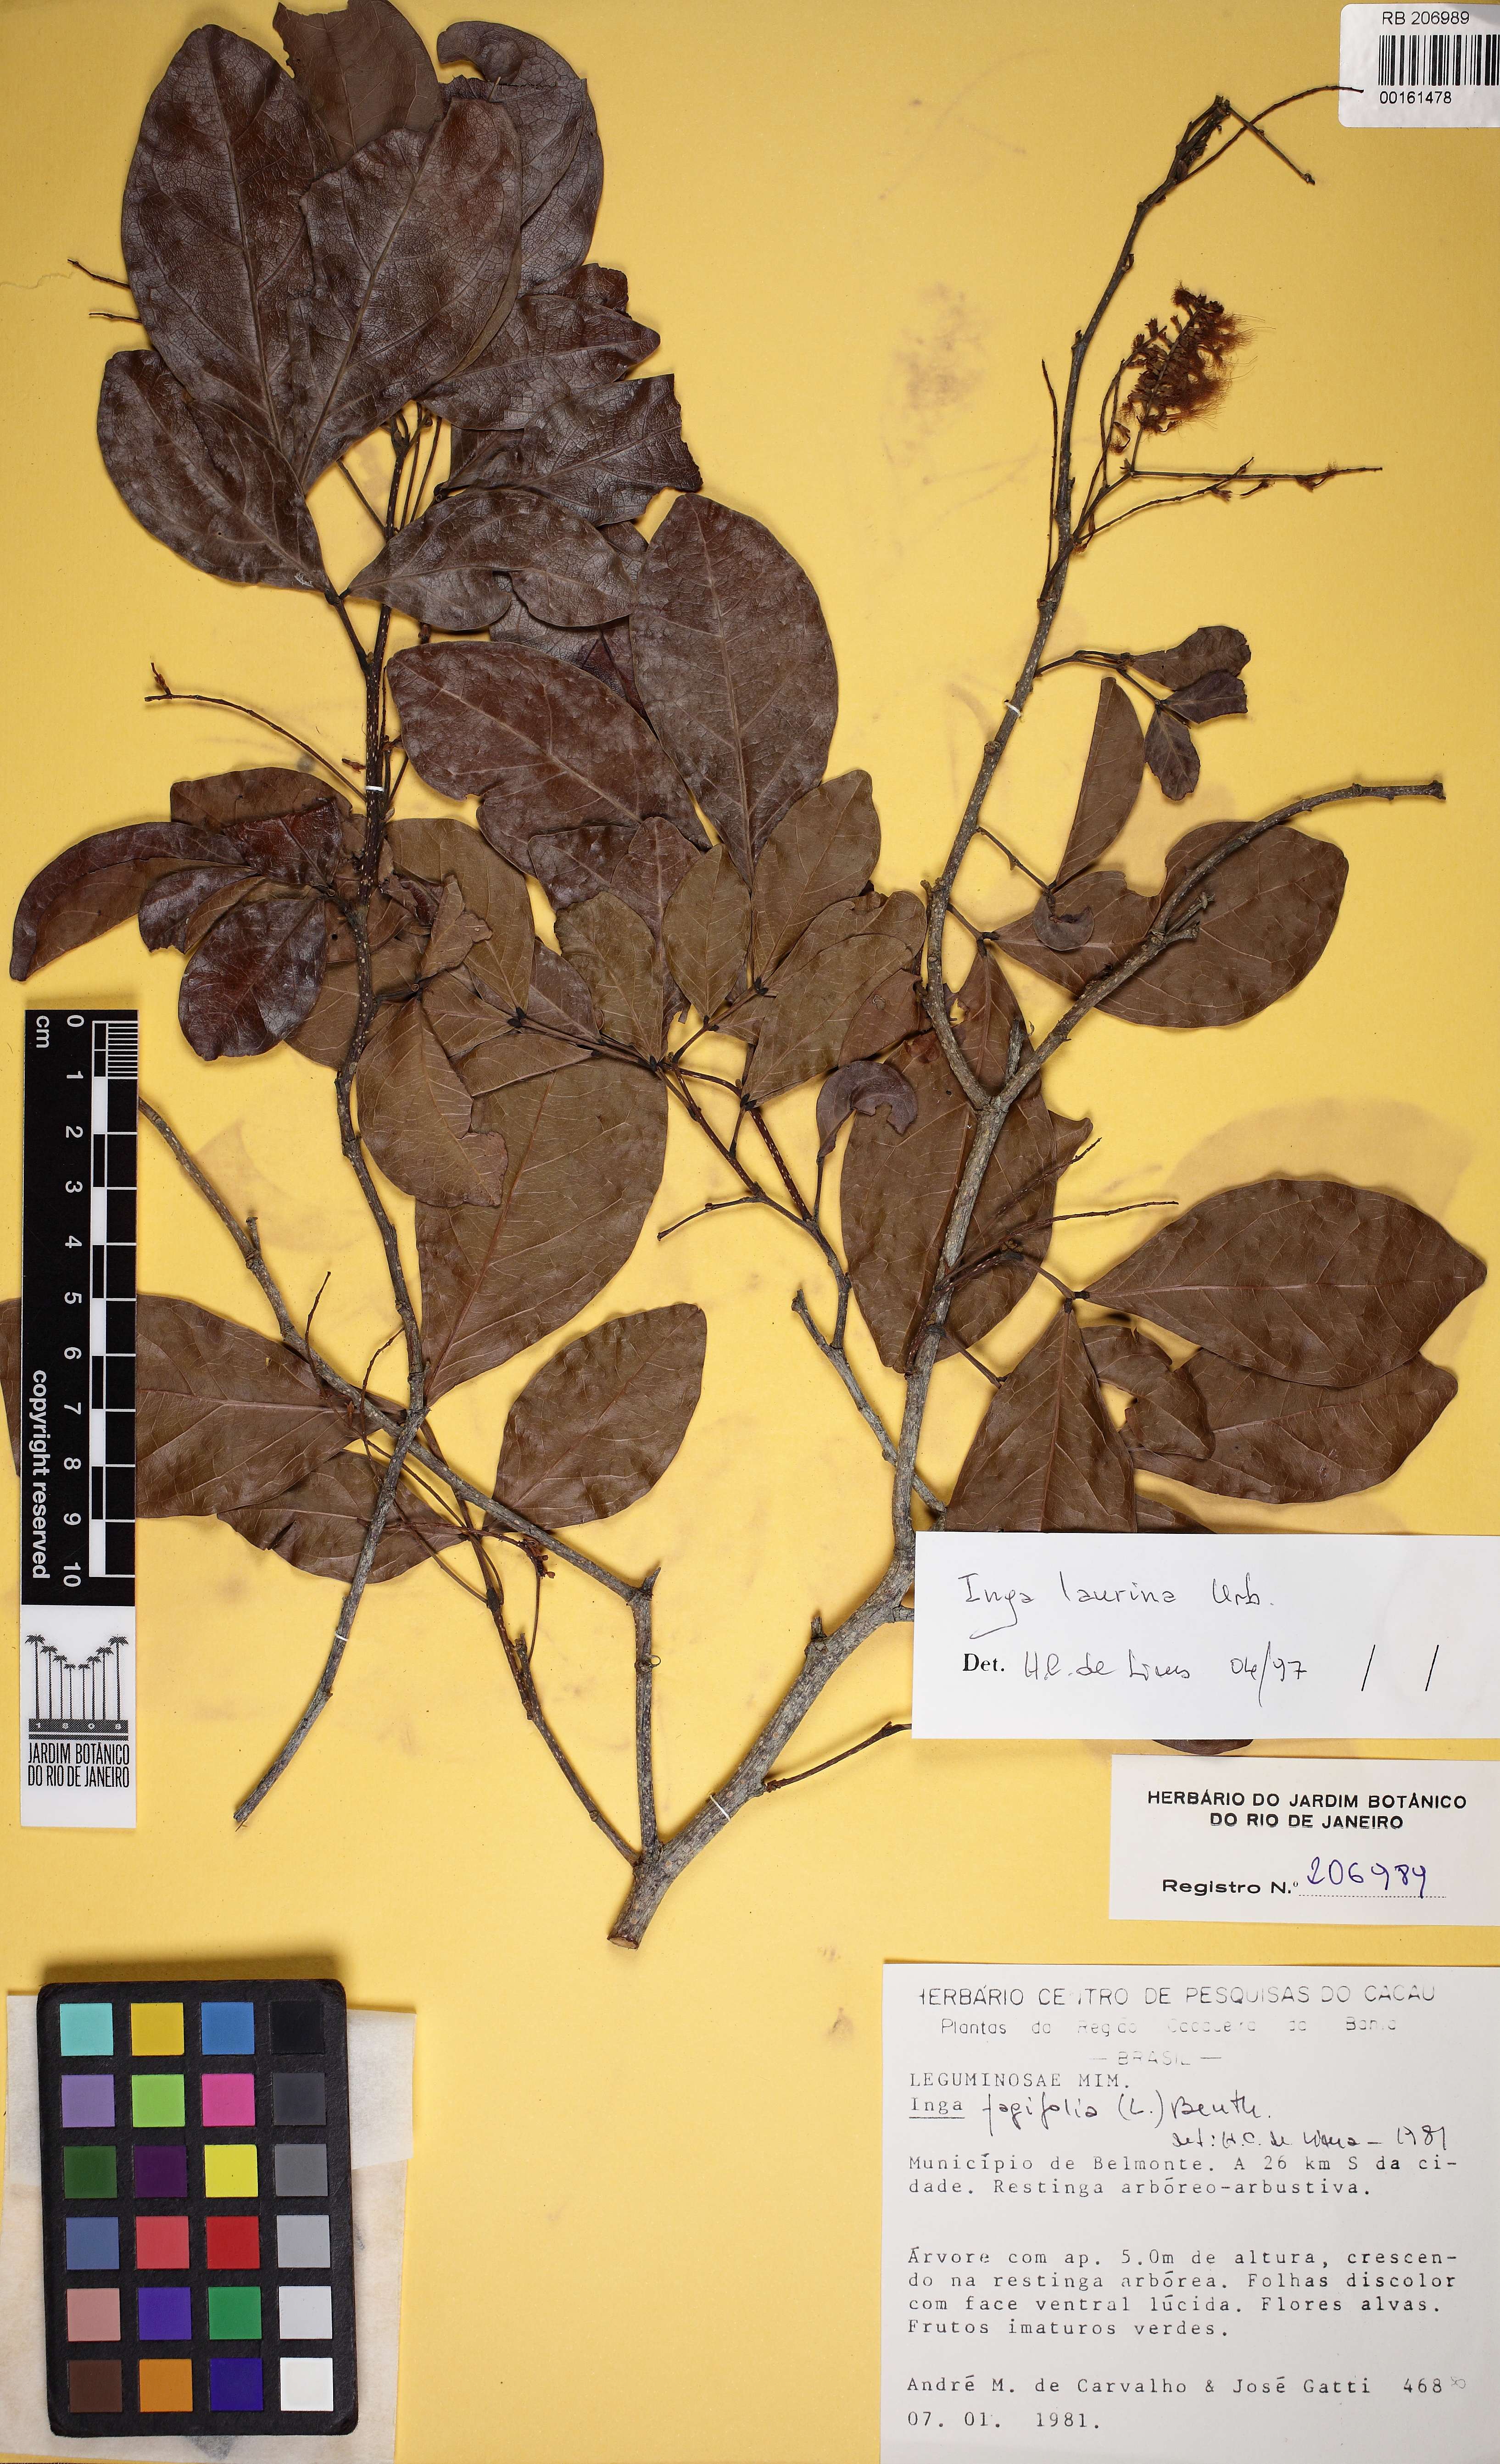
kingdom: Plantae
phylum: Tracheophyta
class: Magnoliopsida
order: Fabales
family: Fabaceae
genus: Inga
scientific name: Inga laurina
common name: Red wood
